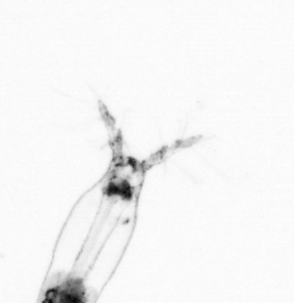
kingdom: Animalia
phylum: Arthropoda
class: Copepoda
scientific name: Copepoda
